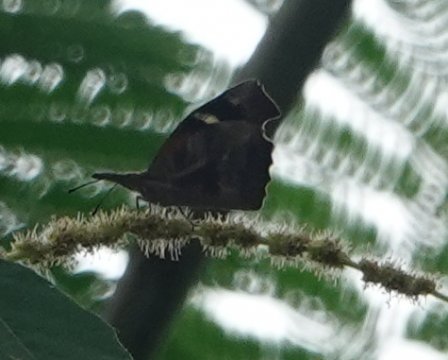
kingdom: Animalia
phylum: Arthropoda
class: Insecta
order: Lepidoptera
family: Nymphalidae
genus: Libytheana
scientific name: Libytheana carinenta
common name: American Snout
